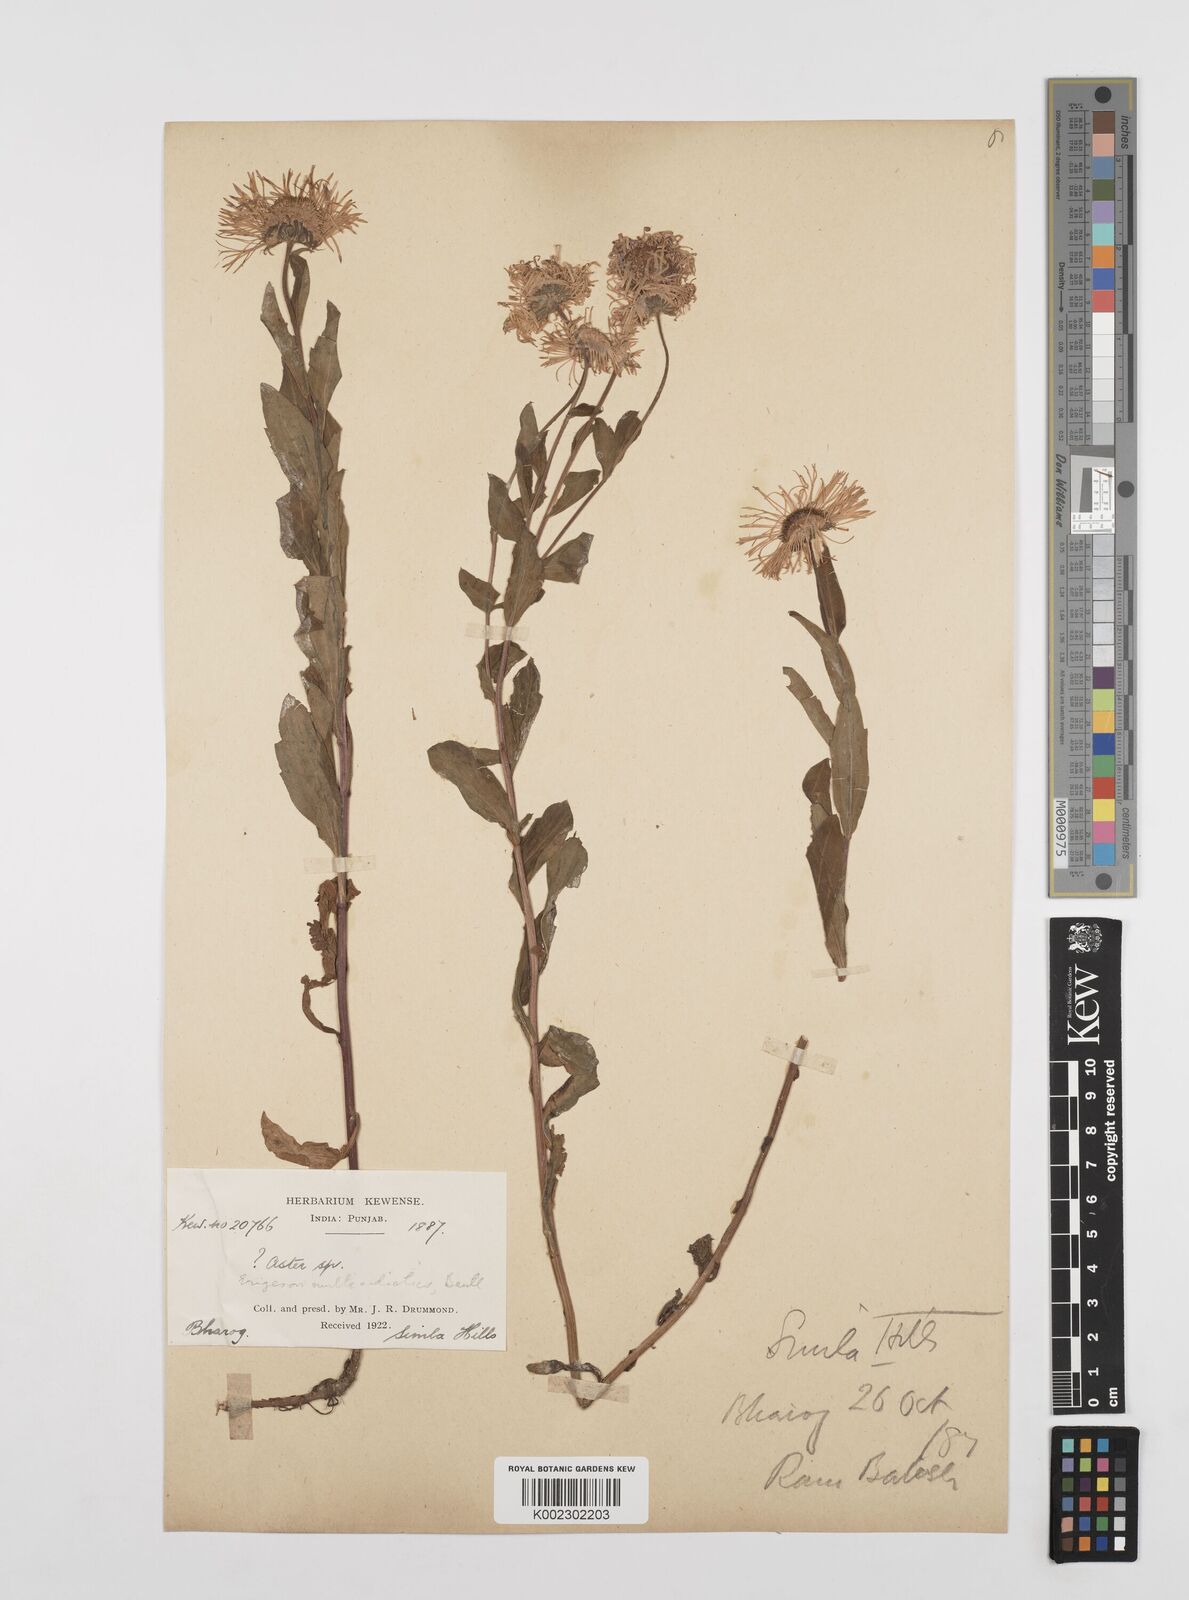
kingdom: Plantae
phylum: Tracheophyta
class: Magnoliopsida
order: Asterales
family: Asteraceae
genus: Erigeron
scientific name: Erigeron multiradiatus
